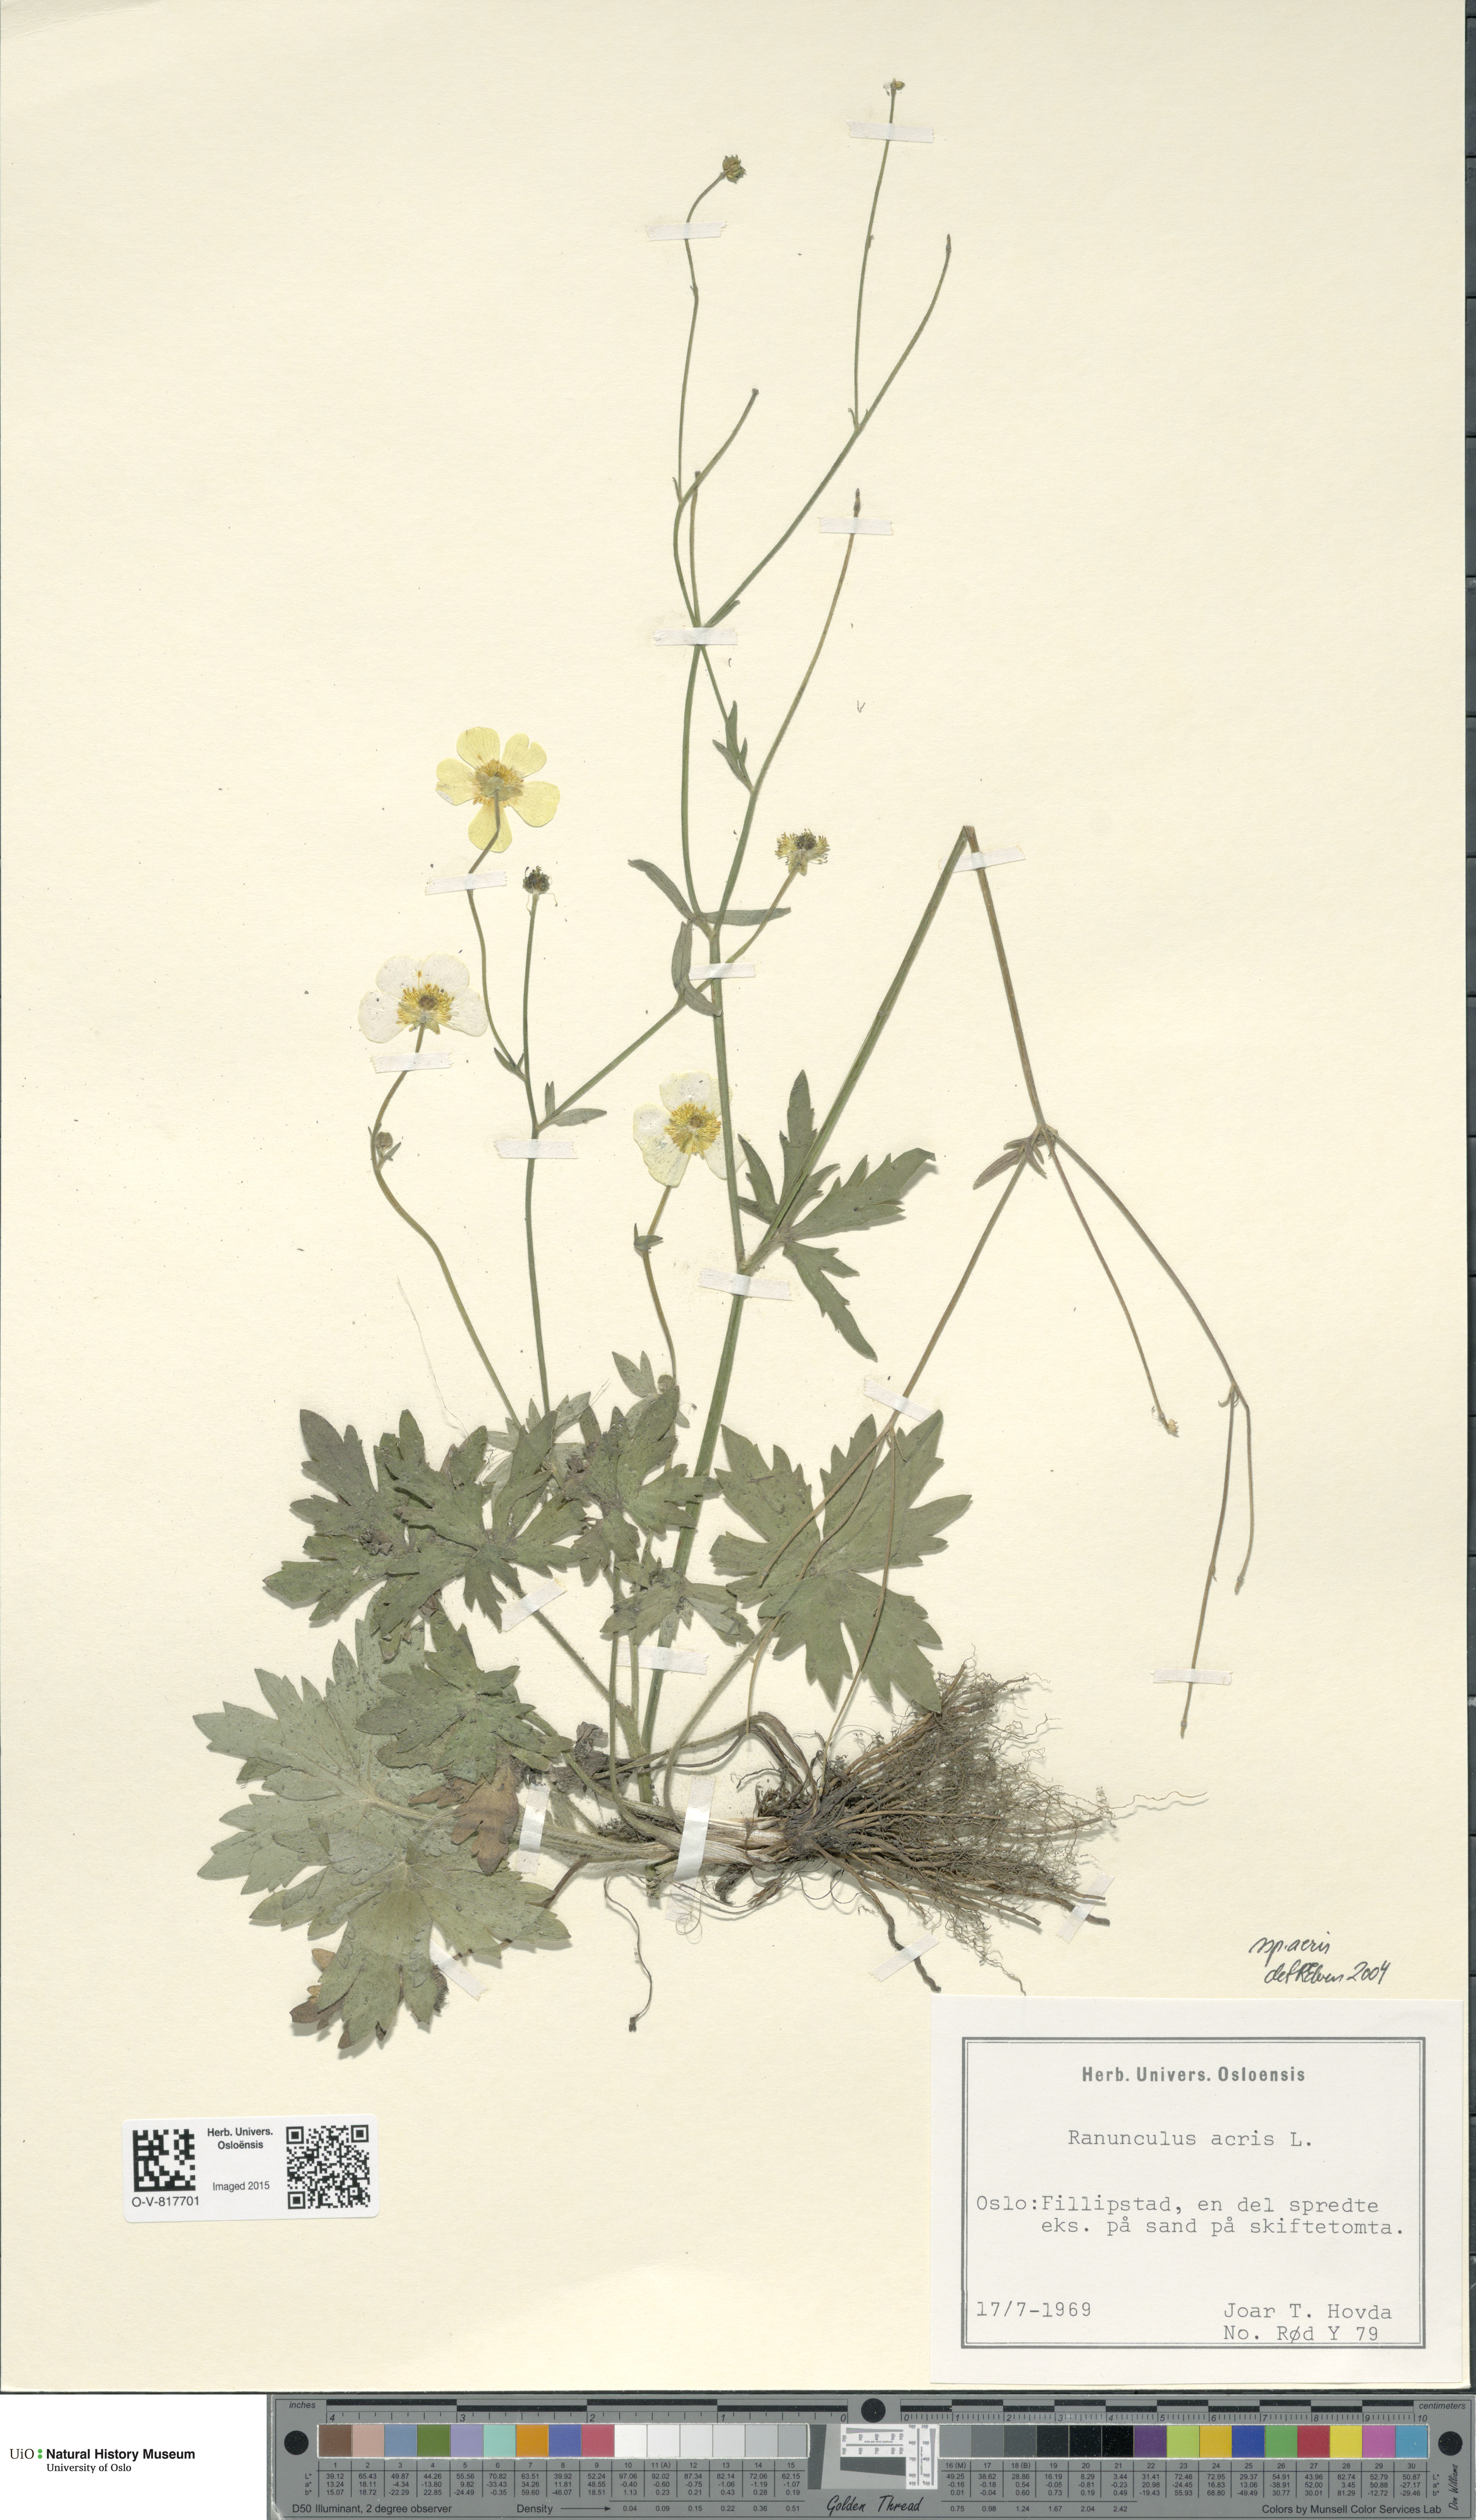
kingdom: Plantae
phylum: Tracheophyta
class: Magnoliopsida
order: Ranunculales
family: Ranunculaceae
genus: Ranunculus
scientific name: Ranunculus acris
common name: Meadow buttercup
